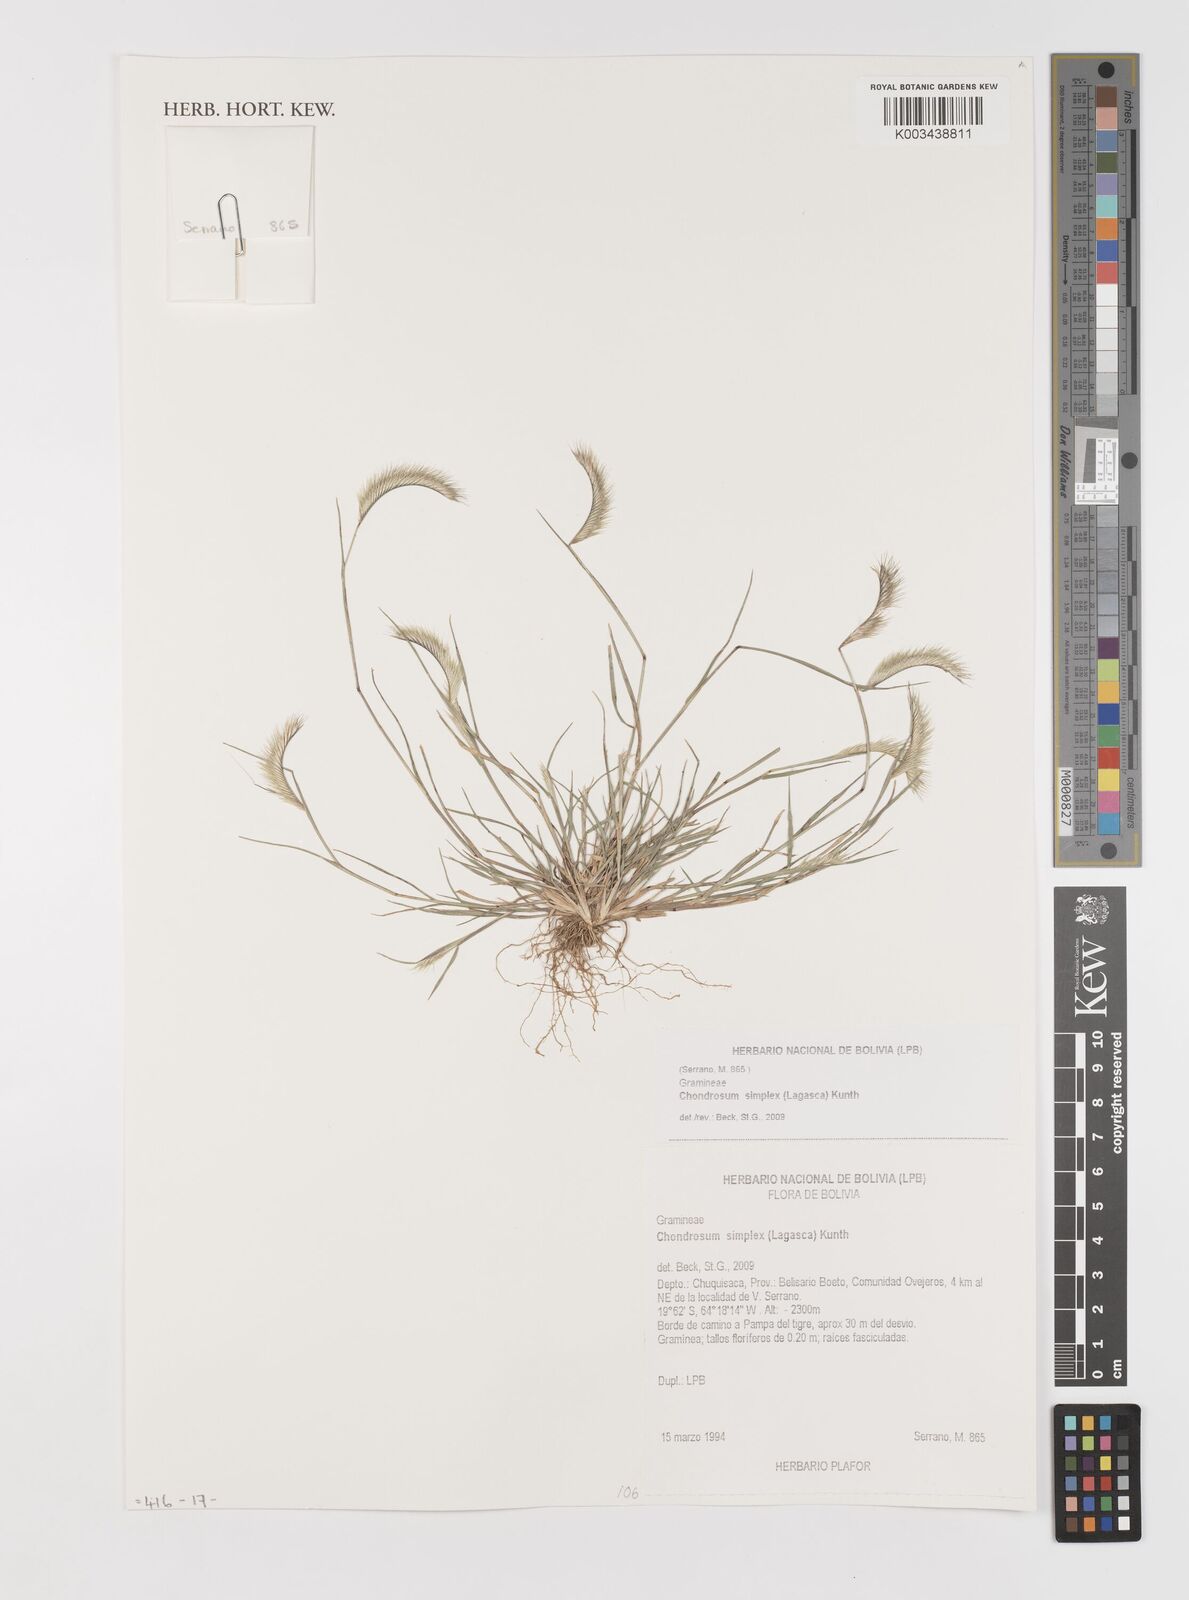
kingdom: Plantae
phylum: Tracheophyta
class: Liliopsida
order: Poales
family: Poaceae
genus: Bouteloua
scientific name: Bouteloua simplex
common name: Mat grama
